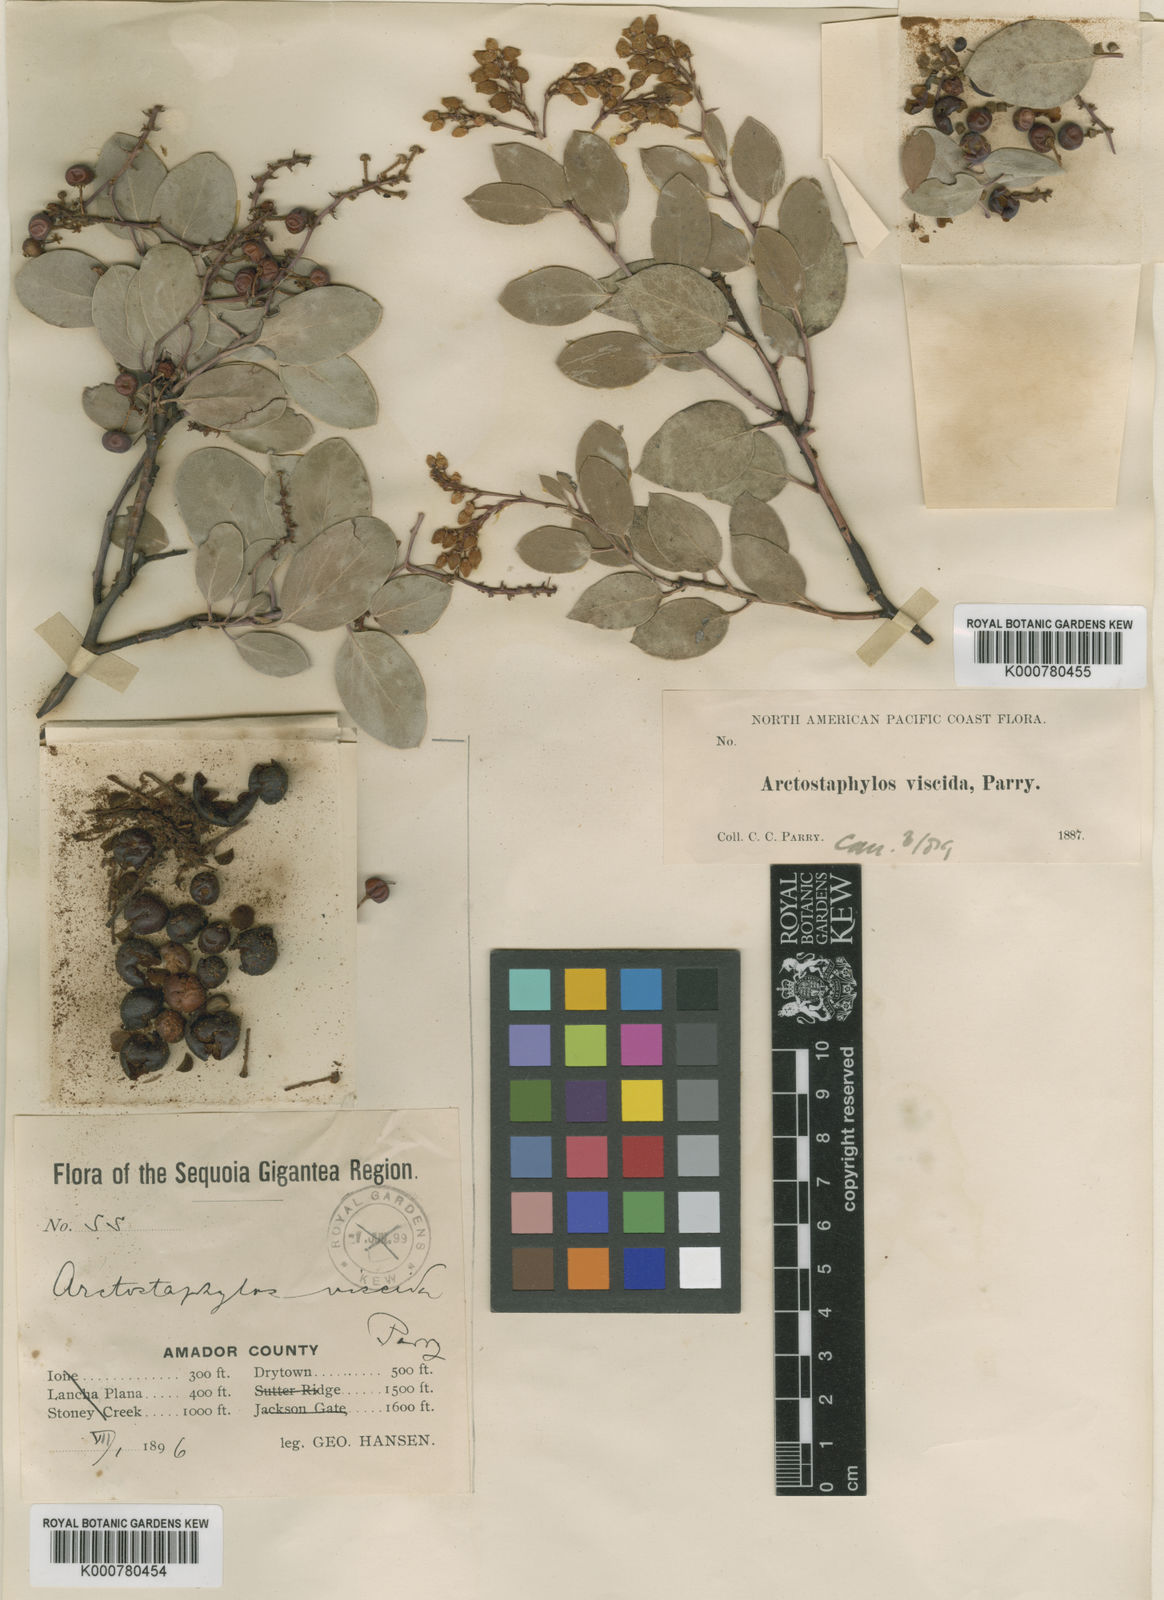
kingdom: Plantae
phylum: Tracheophyta
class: Magnoliopsida
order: Ericales
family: Ericaceae
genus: Arctostaphylos
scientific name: Arctostaphylos viscida
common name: White-leaf manzanita
